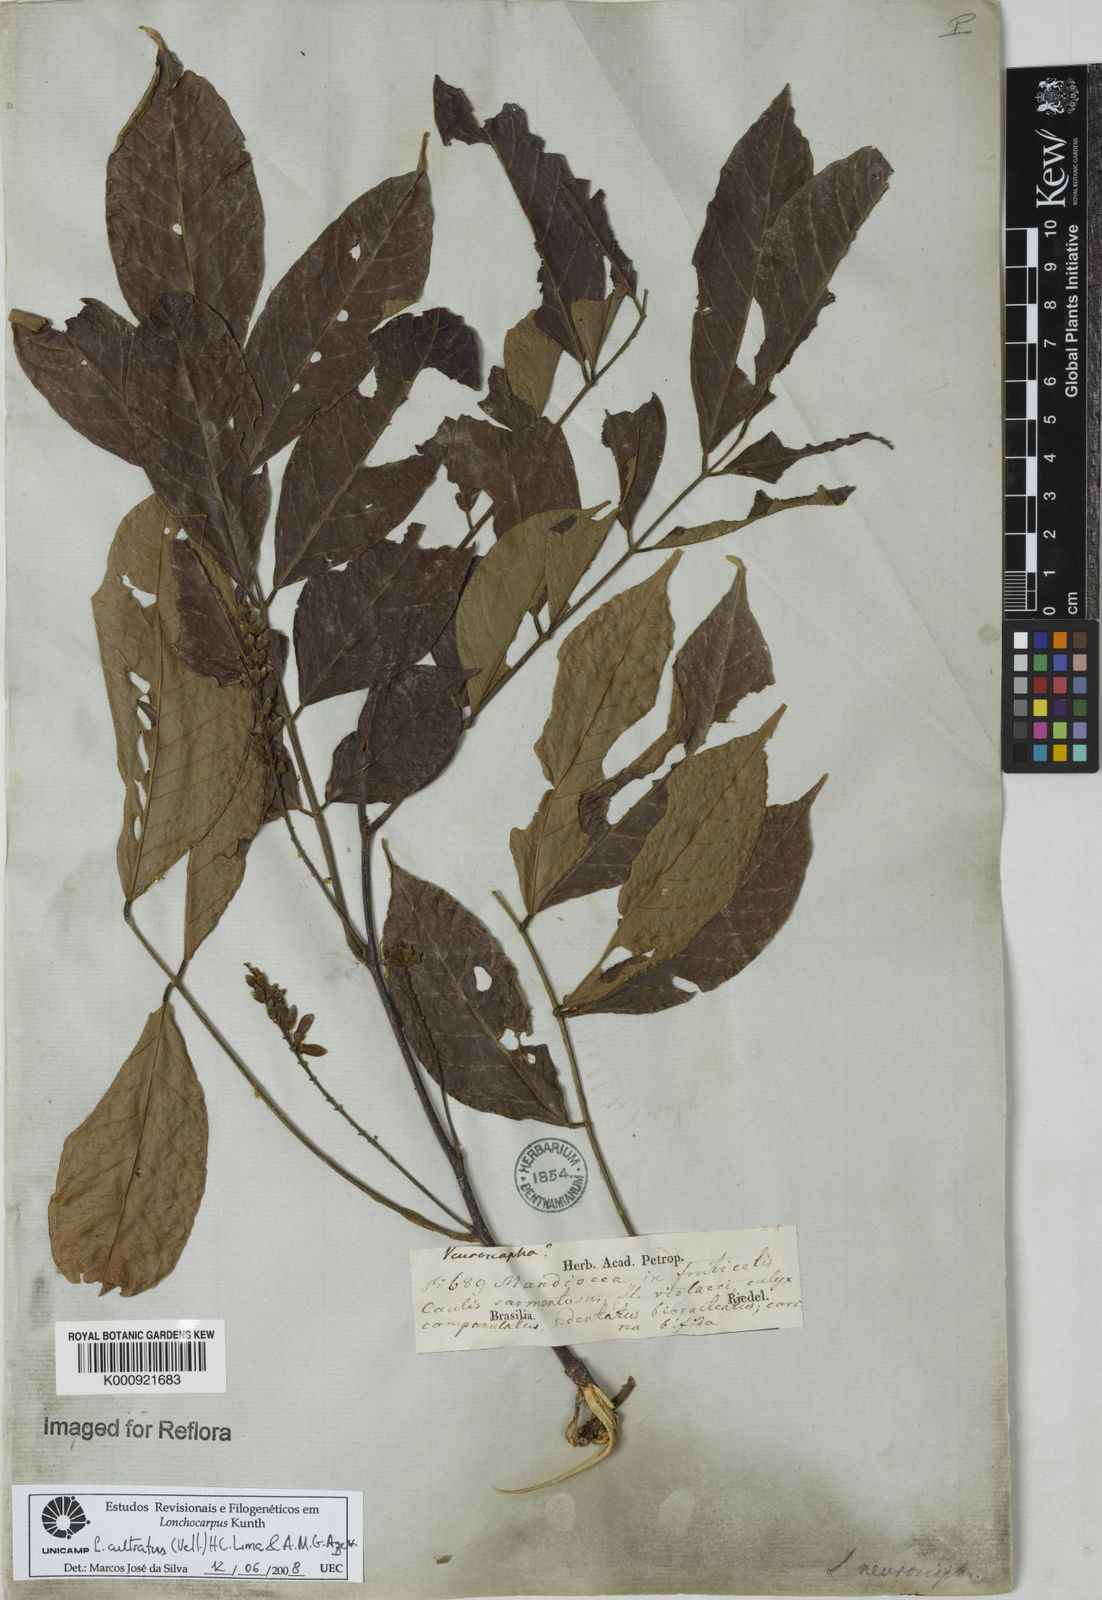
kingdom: Plantae
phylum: Tracheophyta
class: Magnoliopsida
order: Fabales
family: Fabaceae
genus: Lonchocarpus
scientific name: Lonchocarpus cultratus
